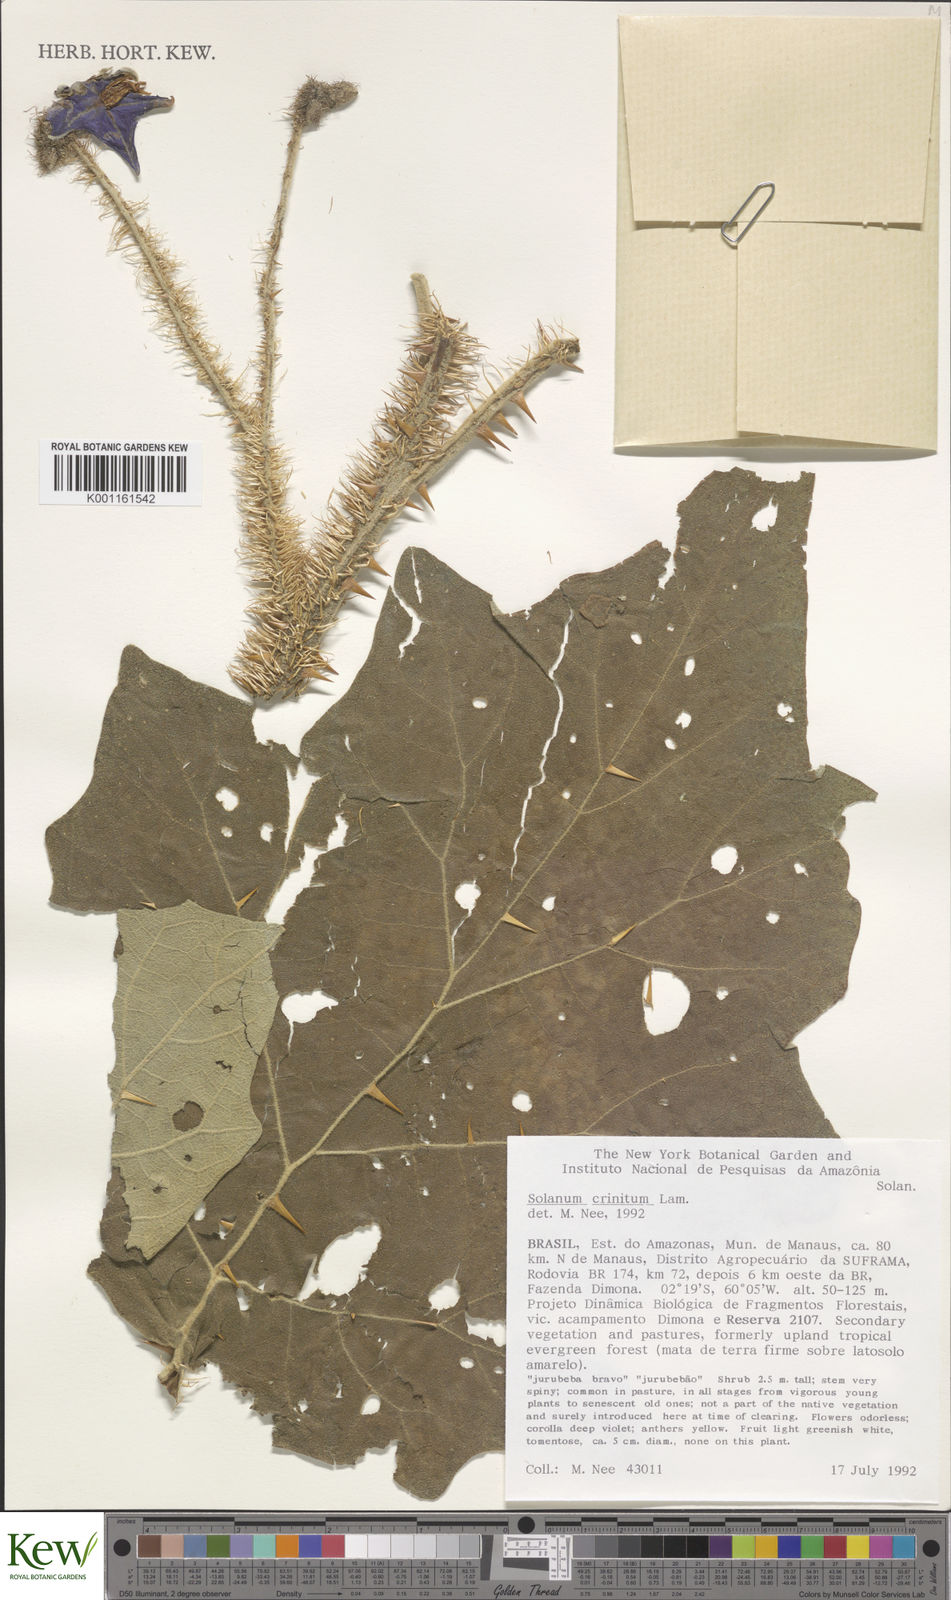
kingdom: Plantae
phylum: Tracheophyta
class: Magnoliopsida
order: Solanales
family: Solanaceae
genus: Solanum
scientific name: Solanum crinitum
